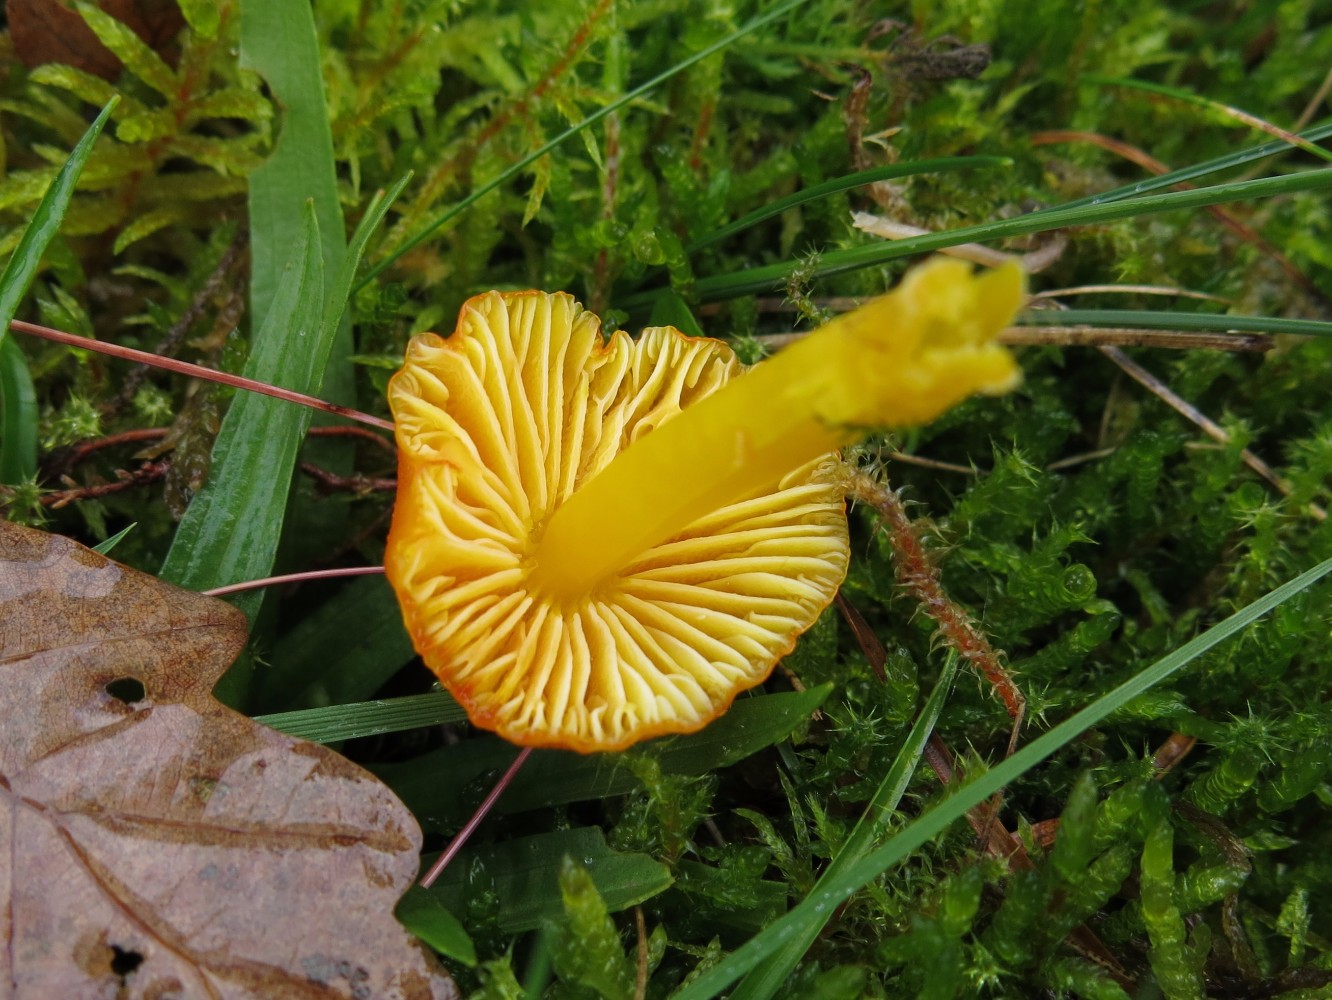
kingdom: Fungi
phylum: Basidiomycota
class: Agaricomycetes
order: Agaricales
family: Hygrophoraceae
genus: Hygrocybe
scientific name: Hygrocybe chlorophana
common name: gul vokshat
